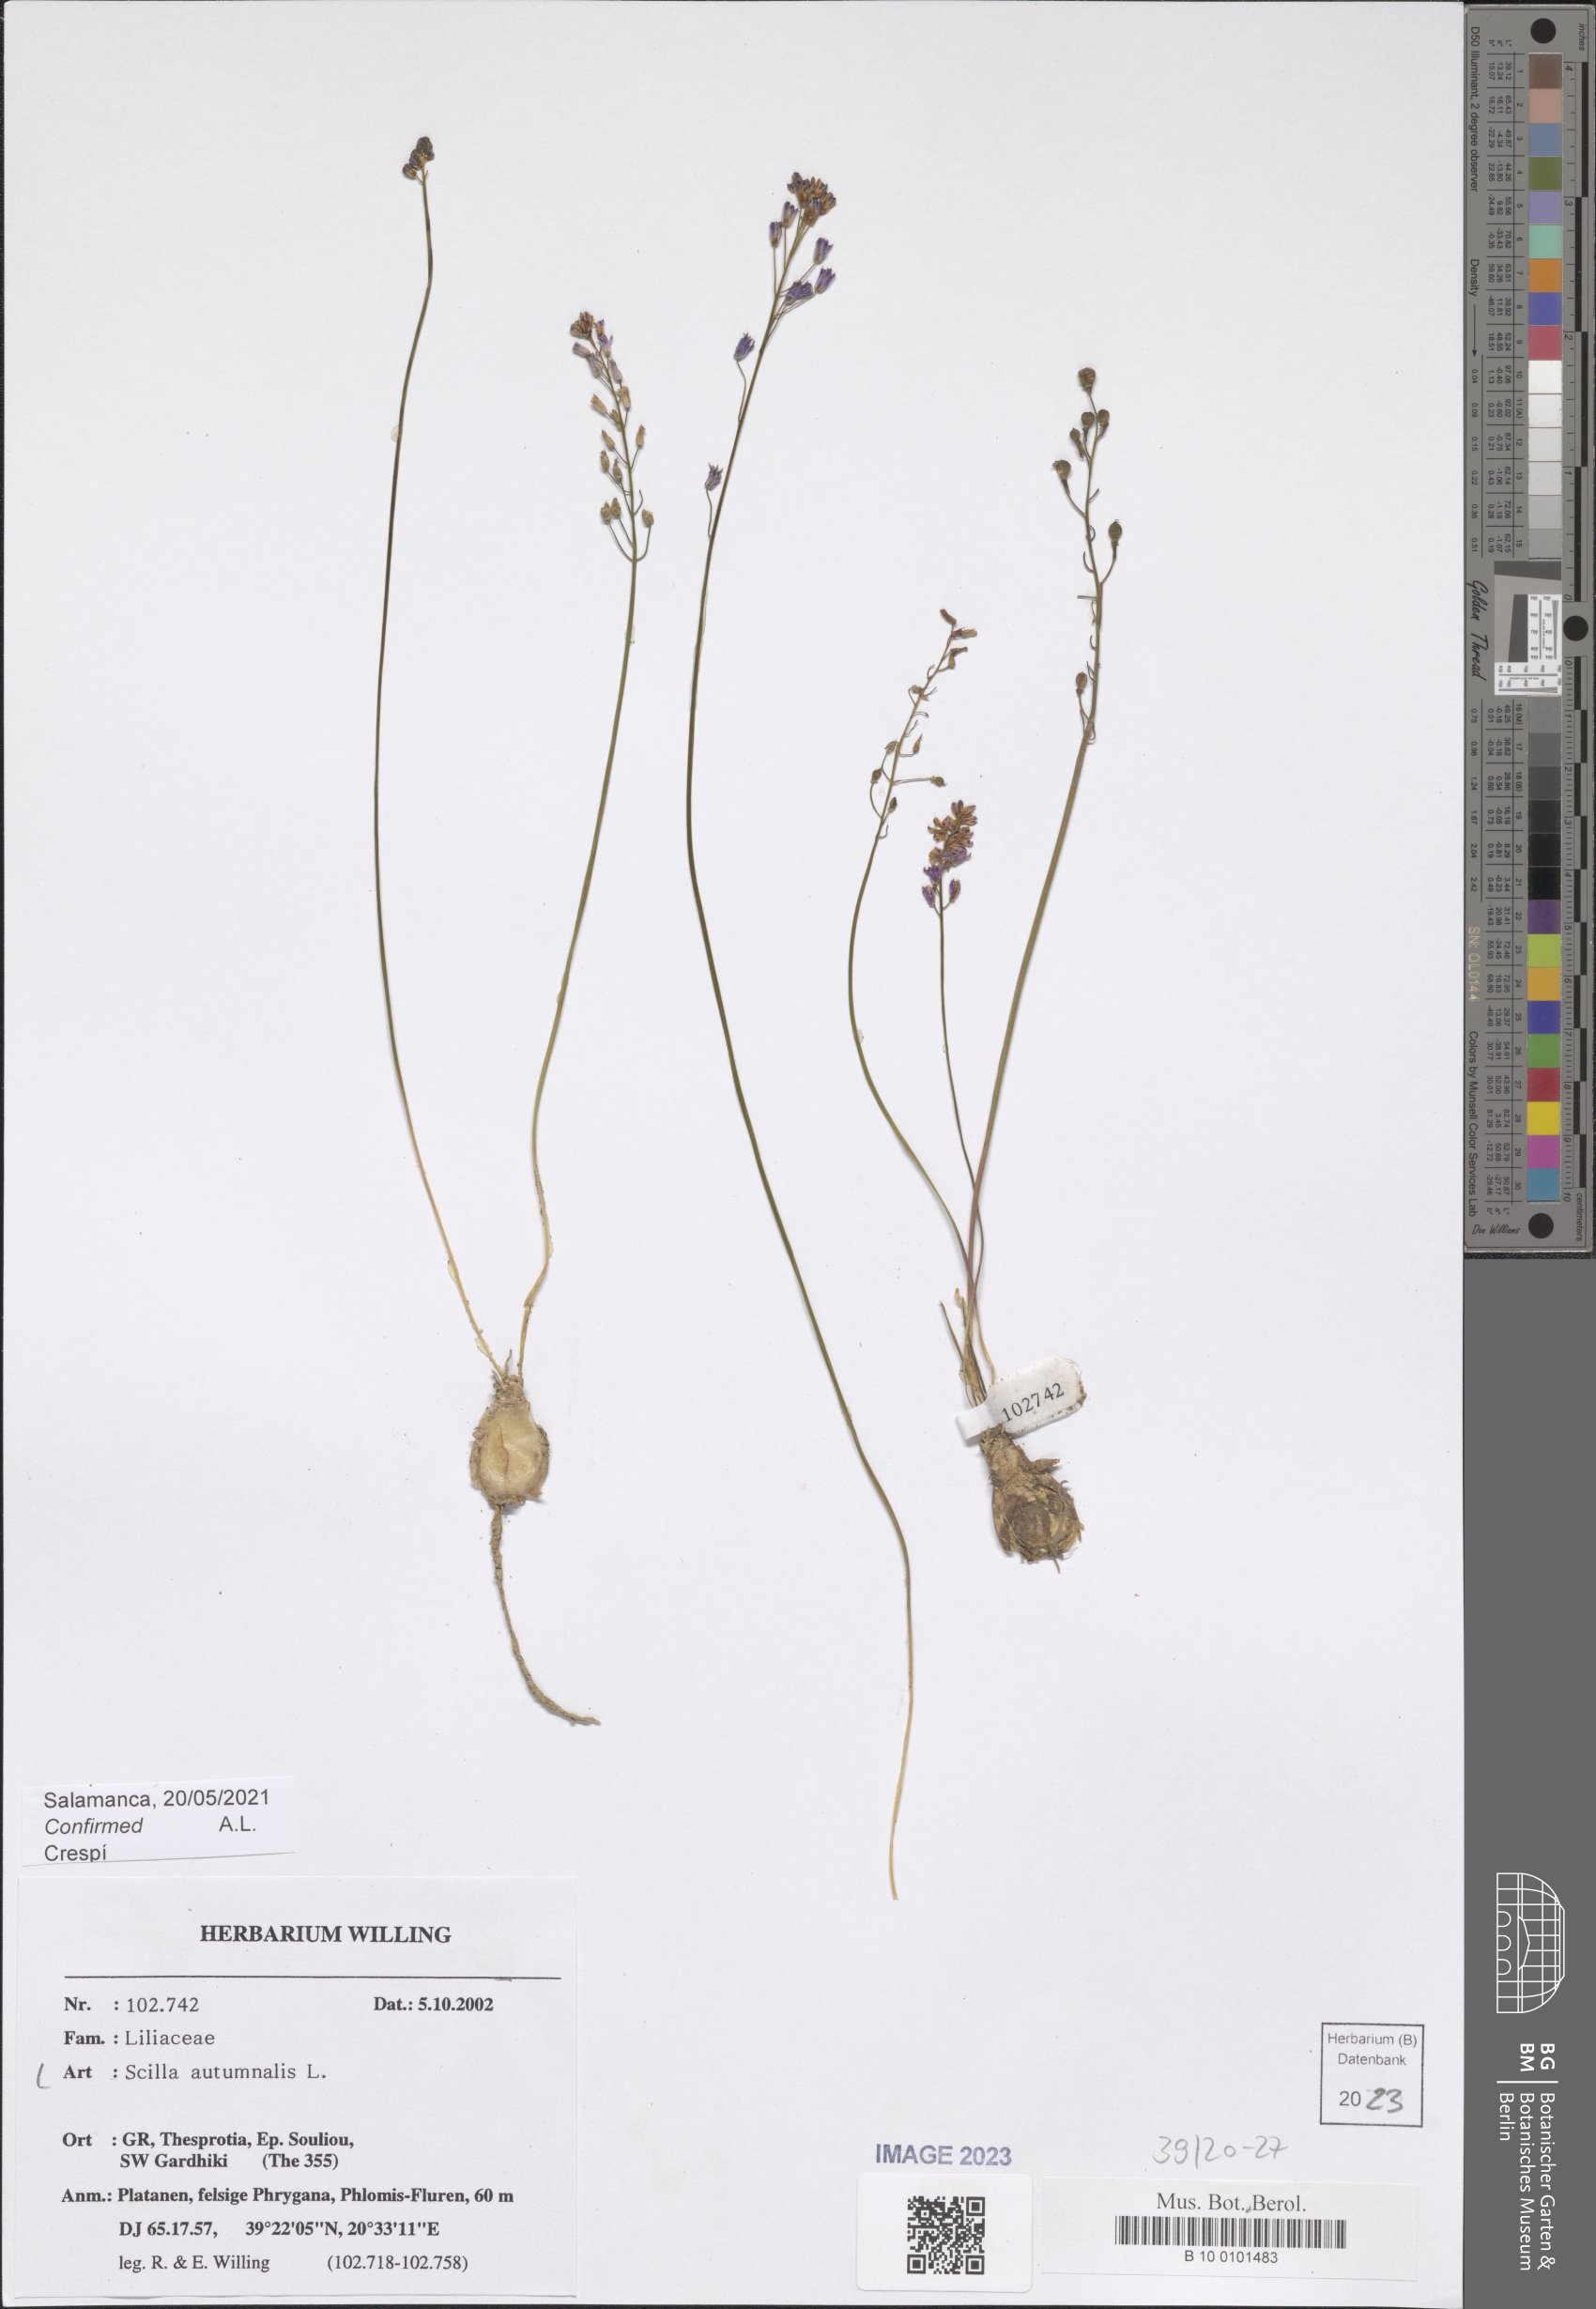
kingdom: Plantae
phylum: Tracheophyta
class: Liliopsida
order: Asparagales
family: Asparagaceae
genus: Prospero
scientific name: Prospero autumnale
